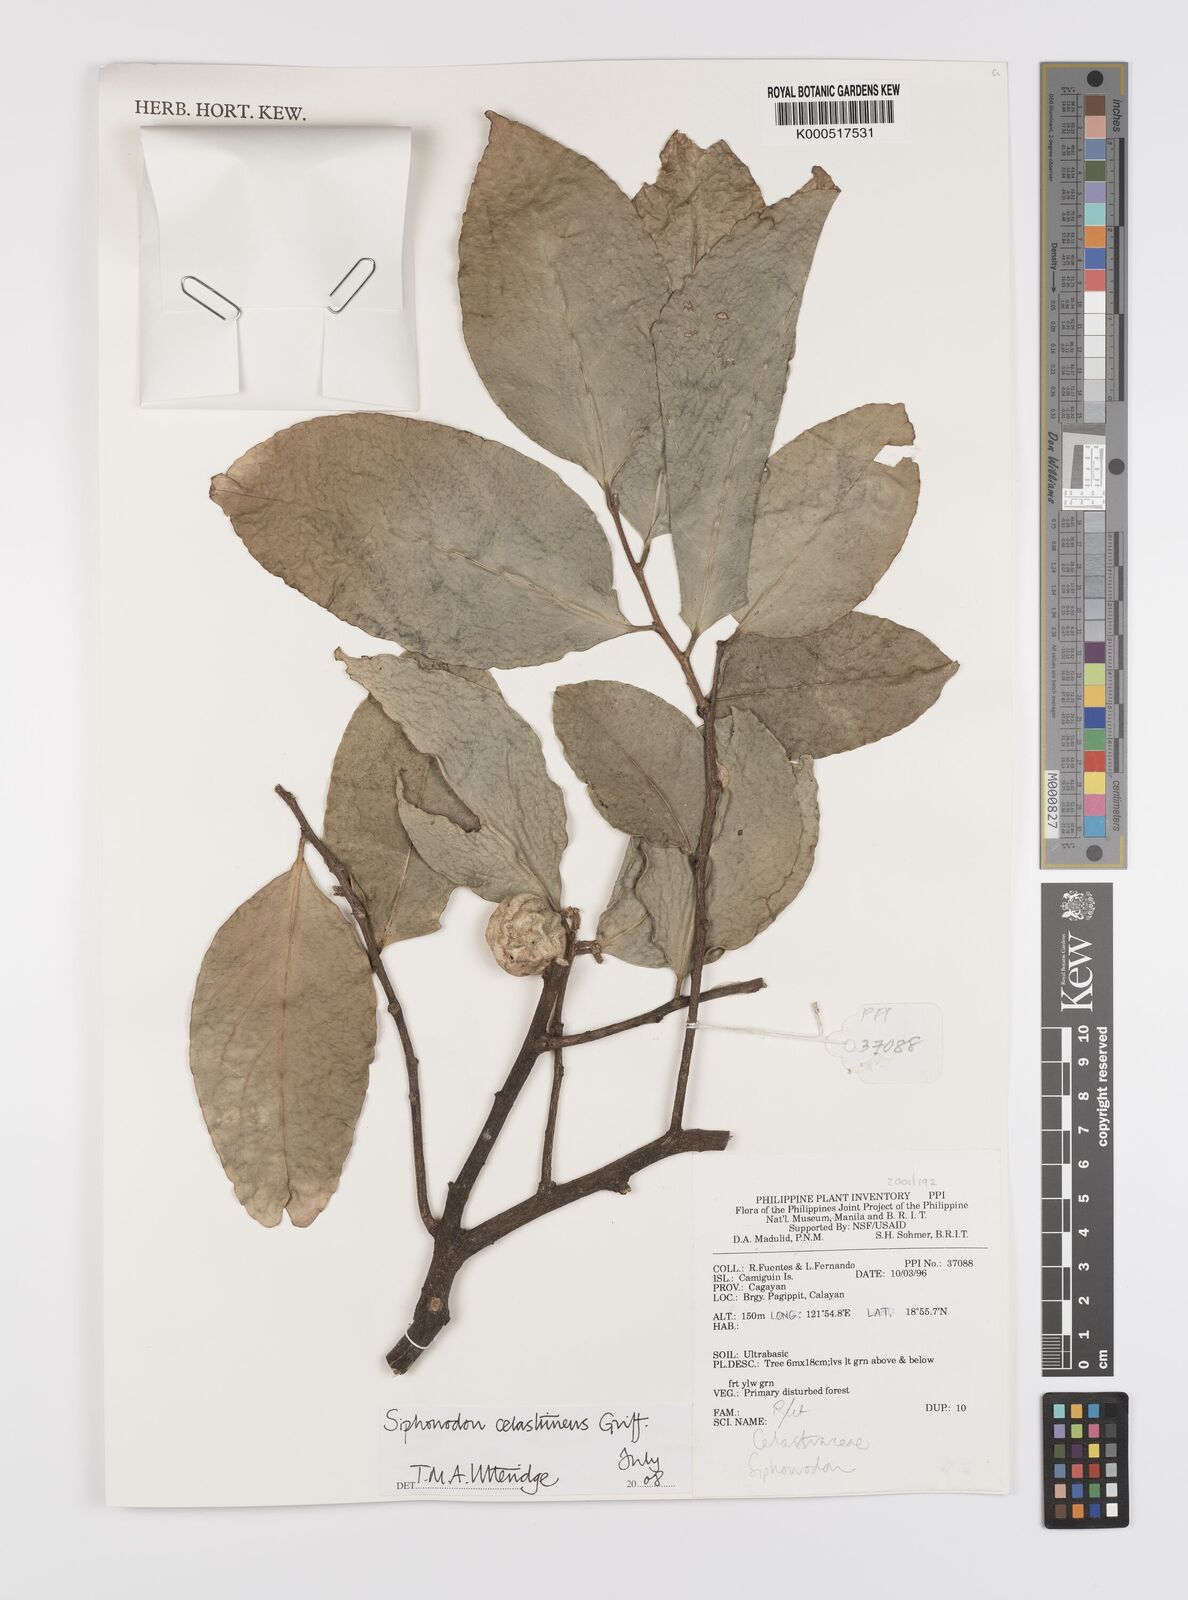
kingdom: Plantae
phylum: Tracheophyta
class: Magnoliopsida
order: Celastrales
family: Celastraceae
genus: Siphonodon
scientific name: Siphonodon celastrineus
